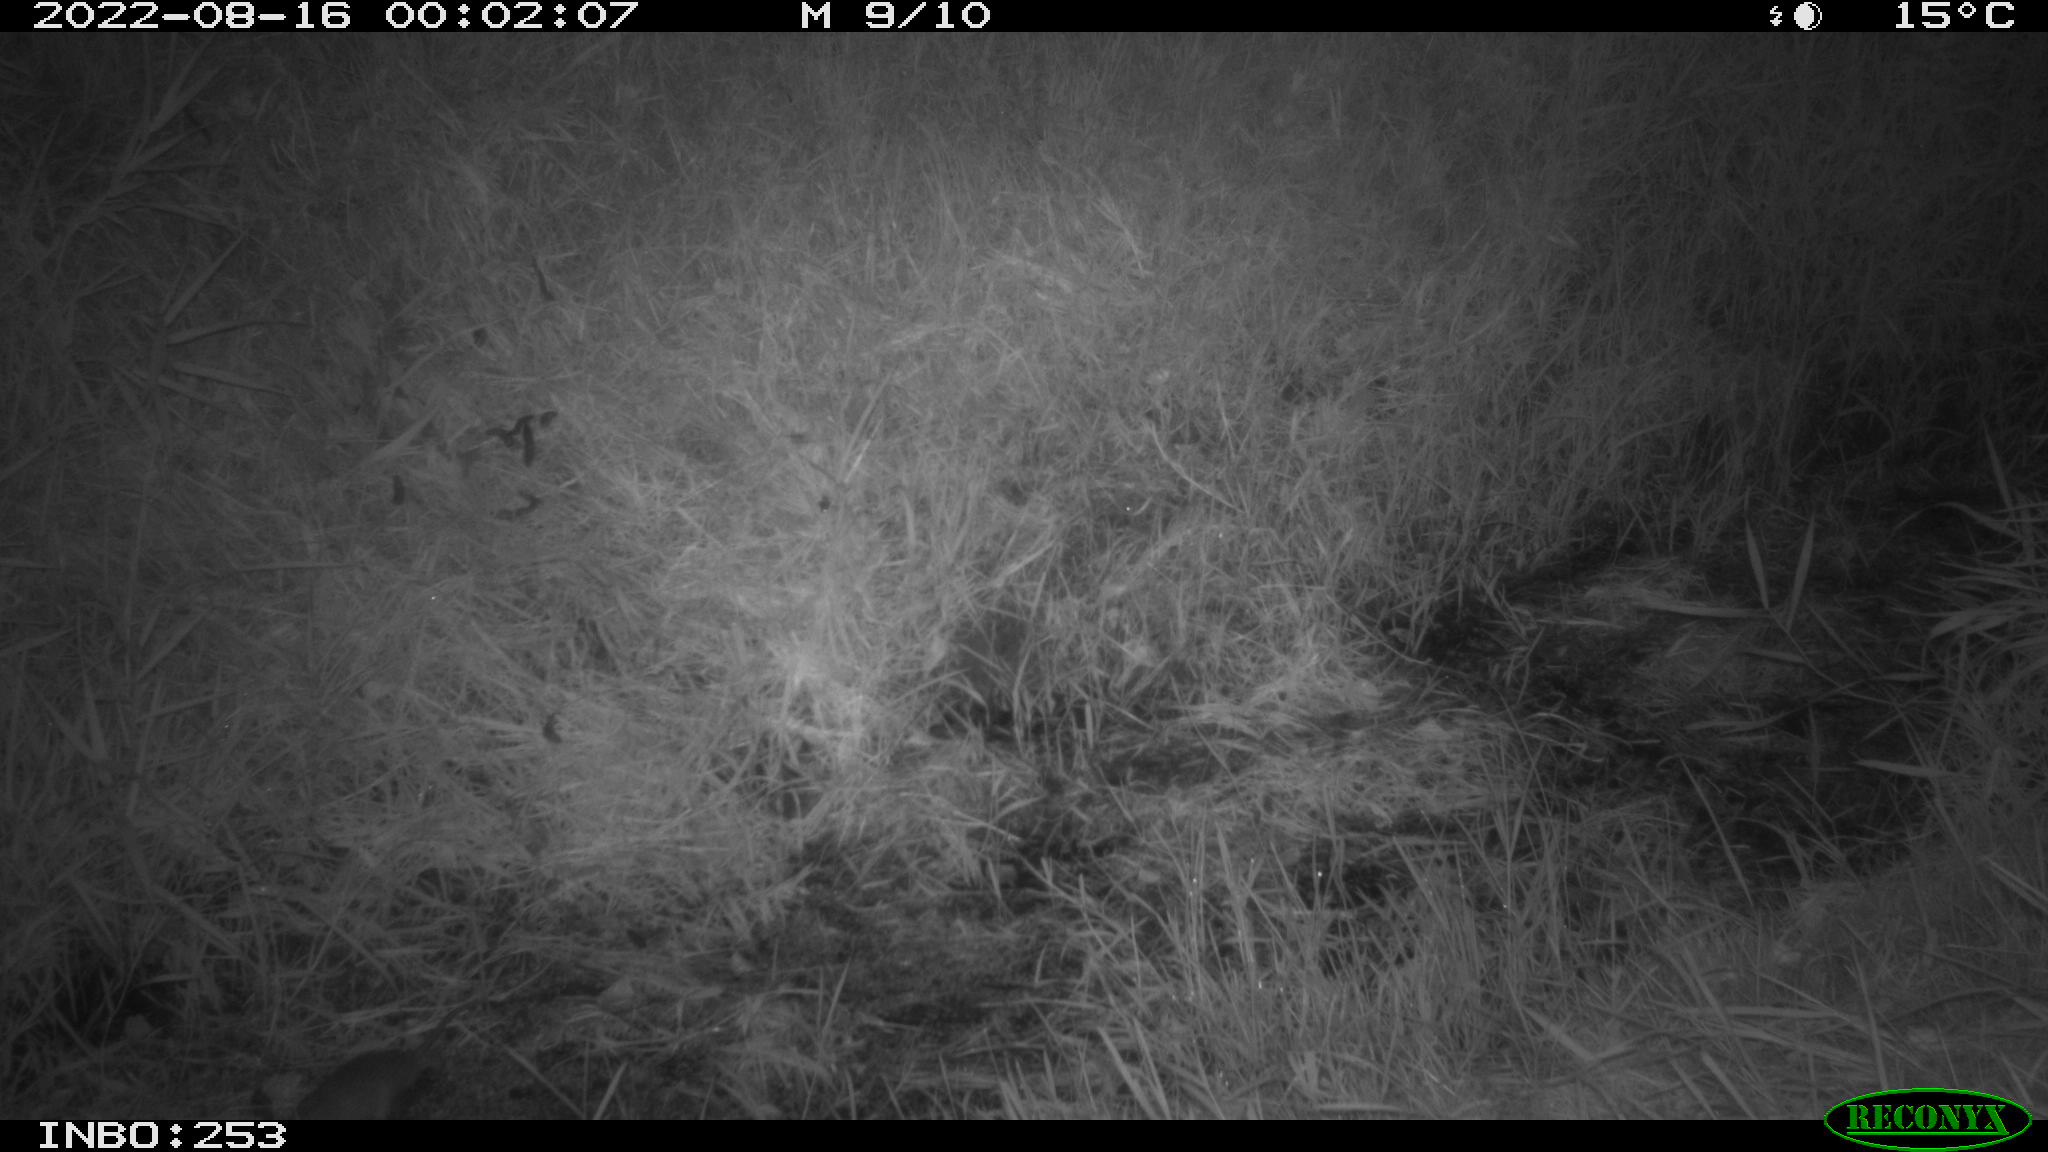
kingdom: Animalia
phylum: Chordata
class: Mammalia
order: Rodentia
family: Muridae
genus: Rattus
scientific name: Rattus norvegicus
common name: Brown rat
